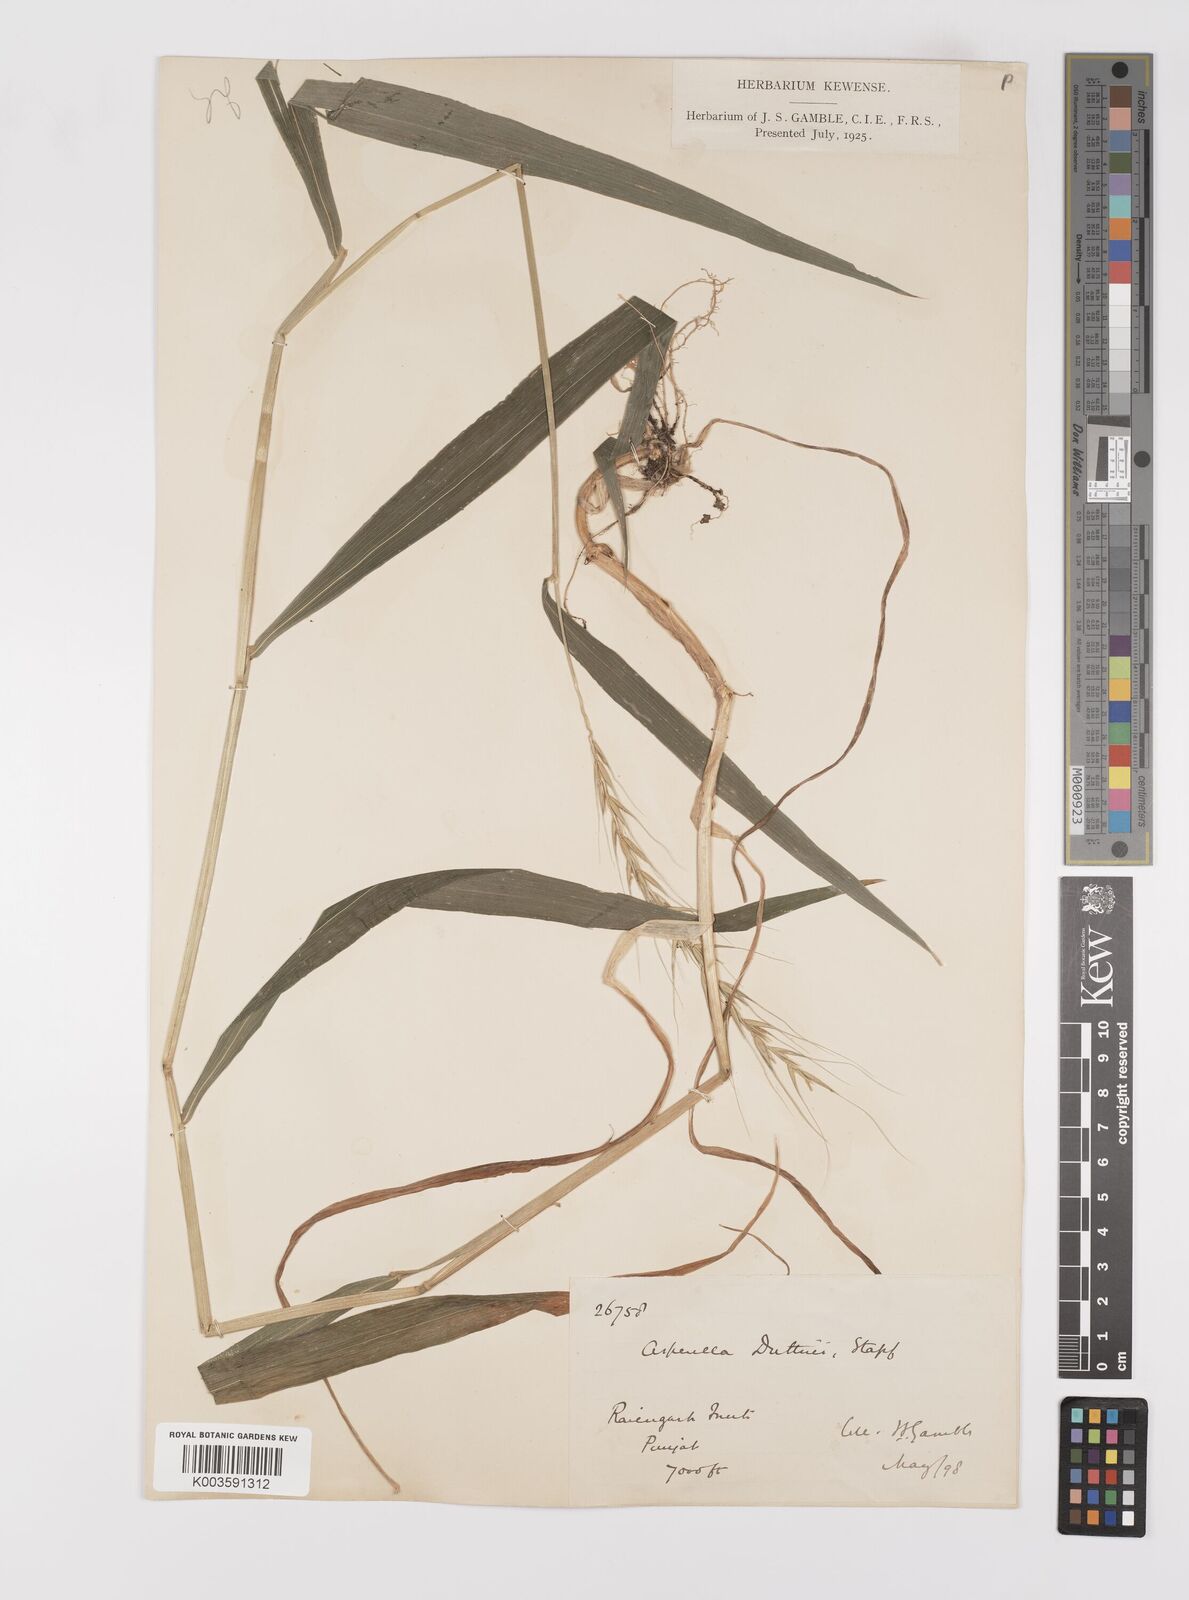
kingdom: Plantae
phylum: Tracheophyta
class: Liliopsida
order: Poales
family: Poaceae
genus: Leymus
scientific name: Leymus duthiei
